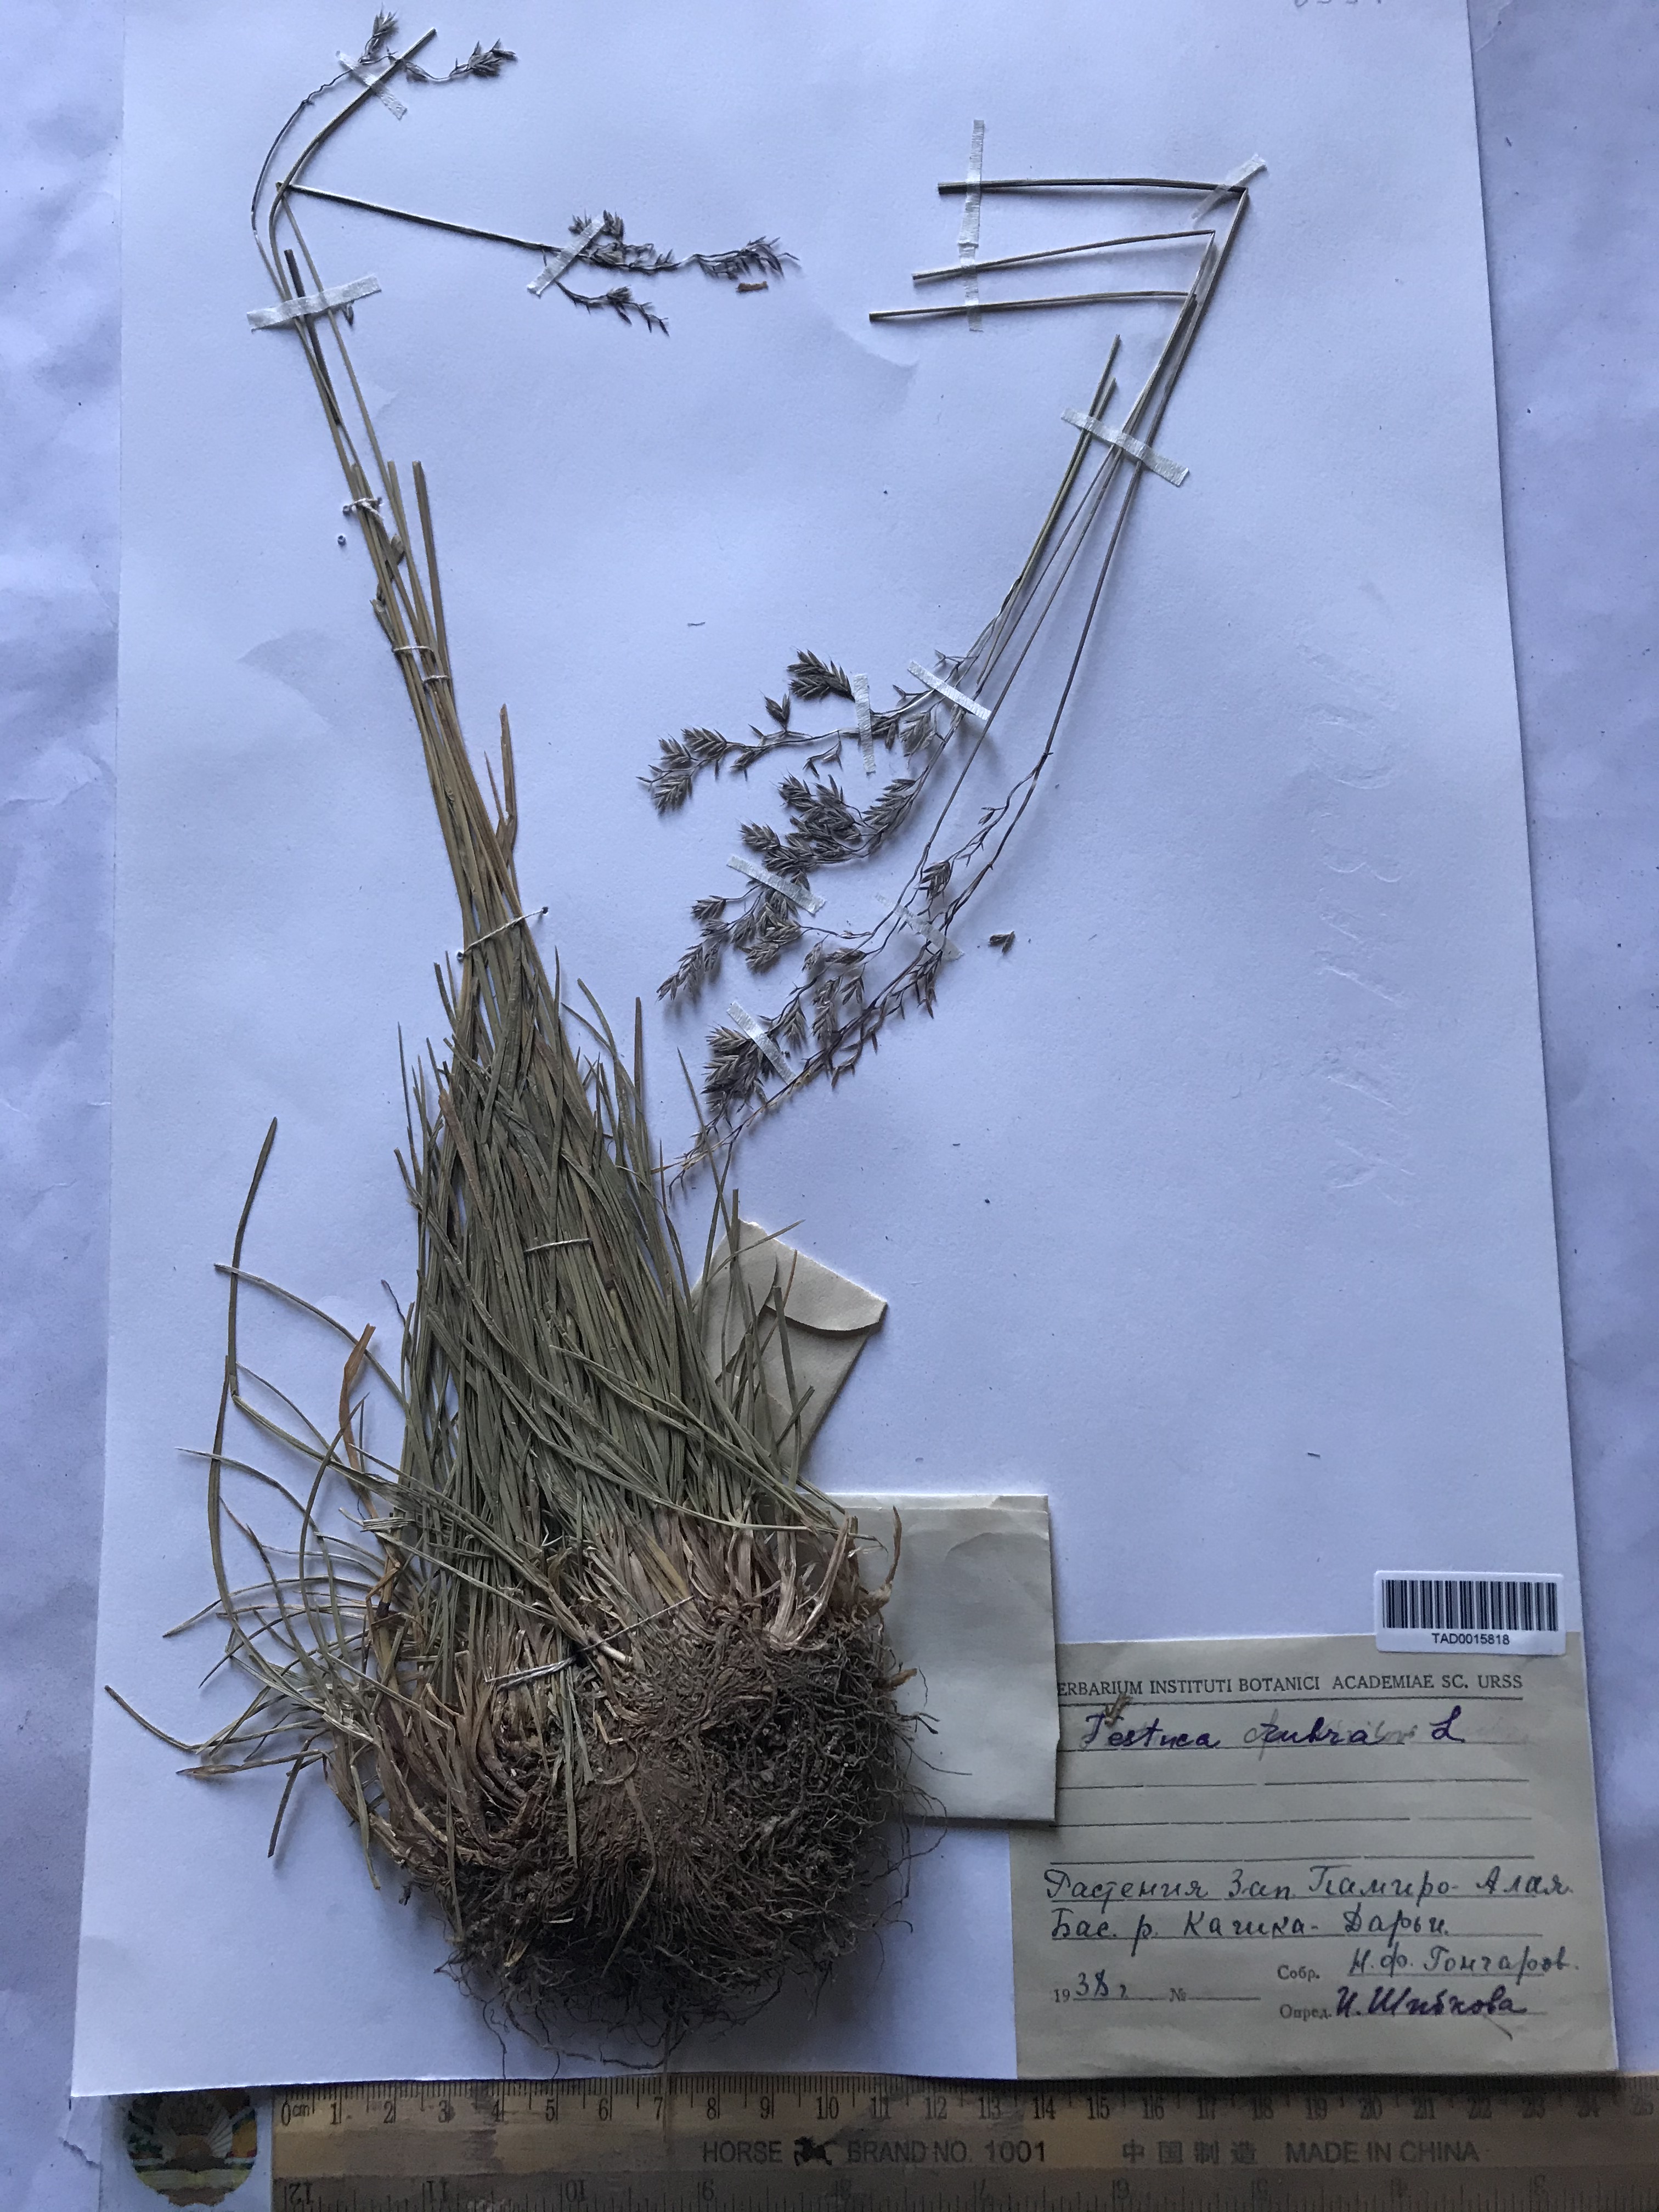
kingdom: Plantae
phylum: Tracheophyta
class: Liliopsida
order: Poales
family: Poaceae
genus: Festuca
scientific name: Festuca rubra
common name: Red fescue
